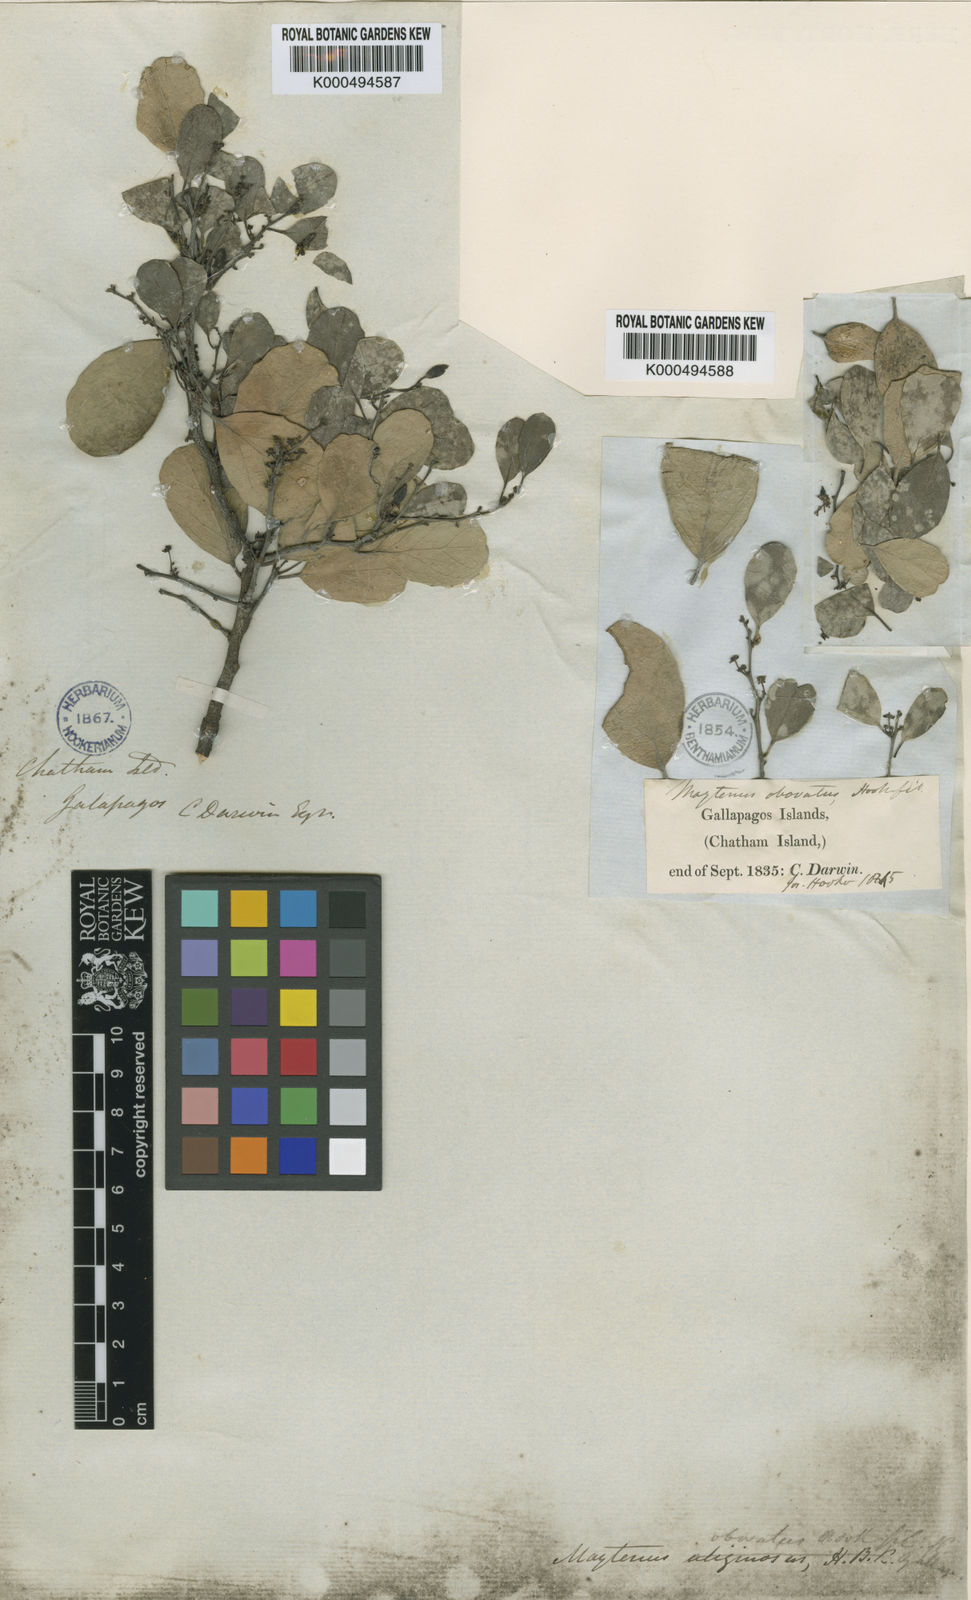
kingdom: Plantae
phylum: Tracheophyta
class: Magnoliopsida
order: Celastrales
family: Celastraceae
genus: Tricerma
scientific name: Tricerma octogonum
